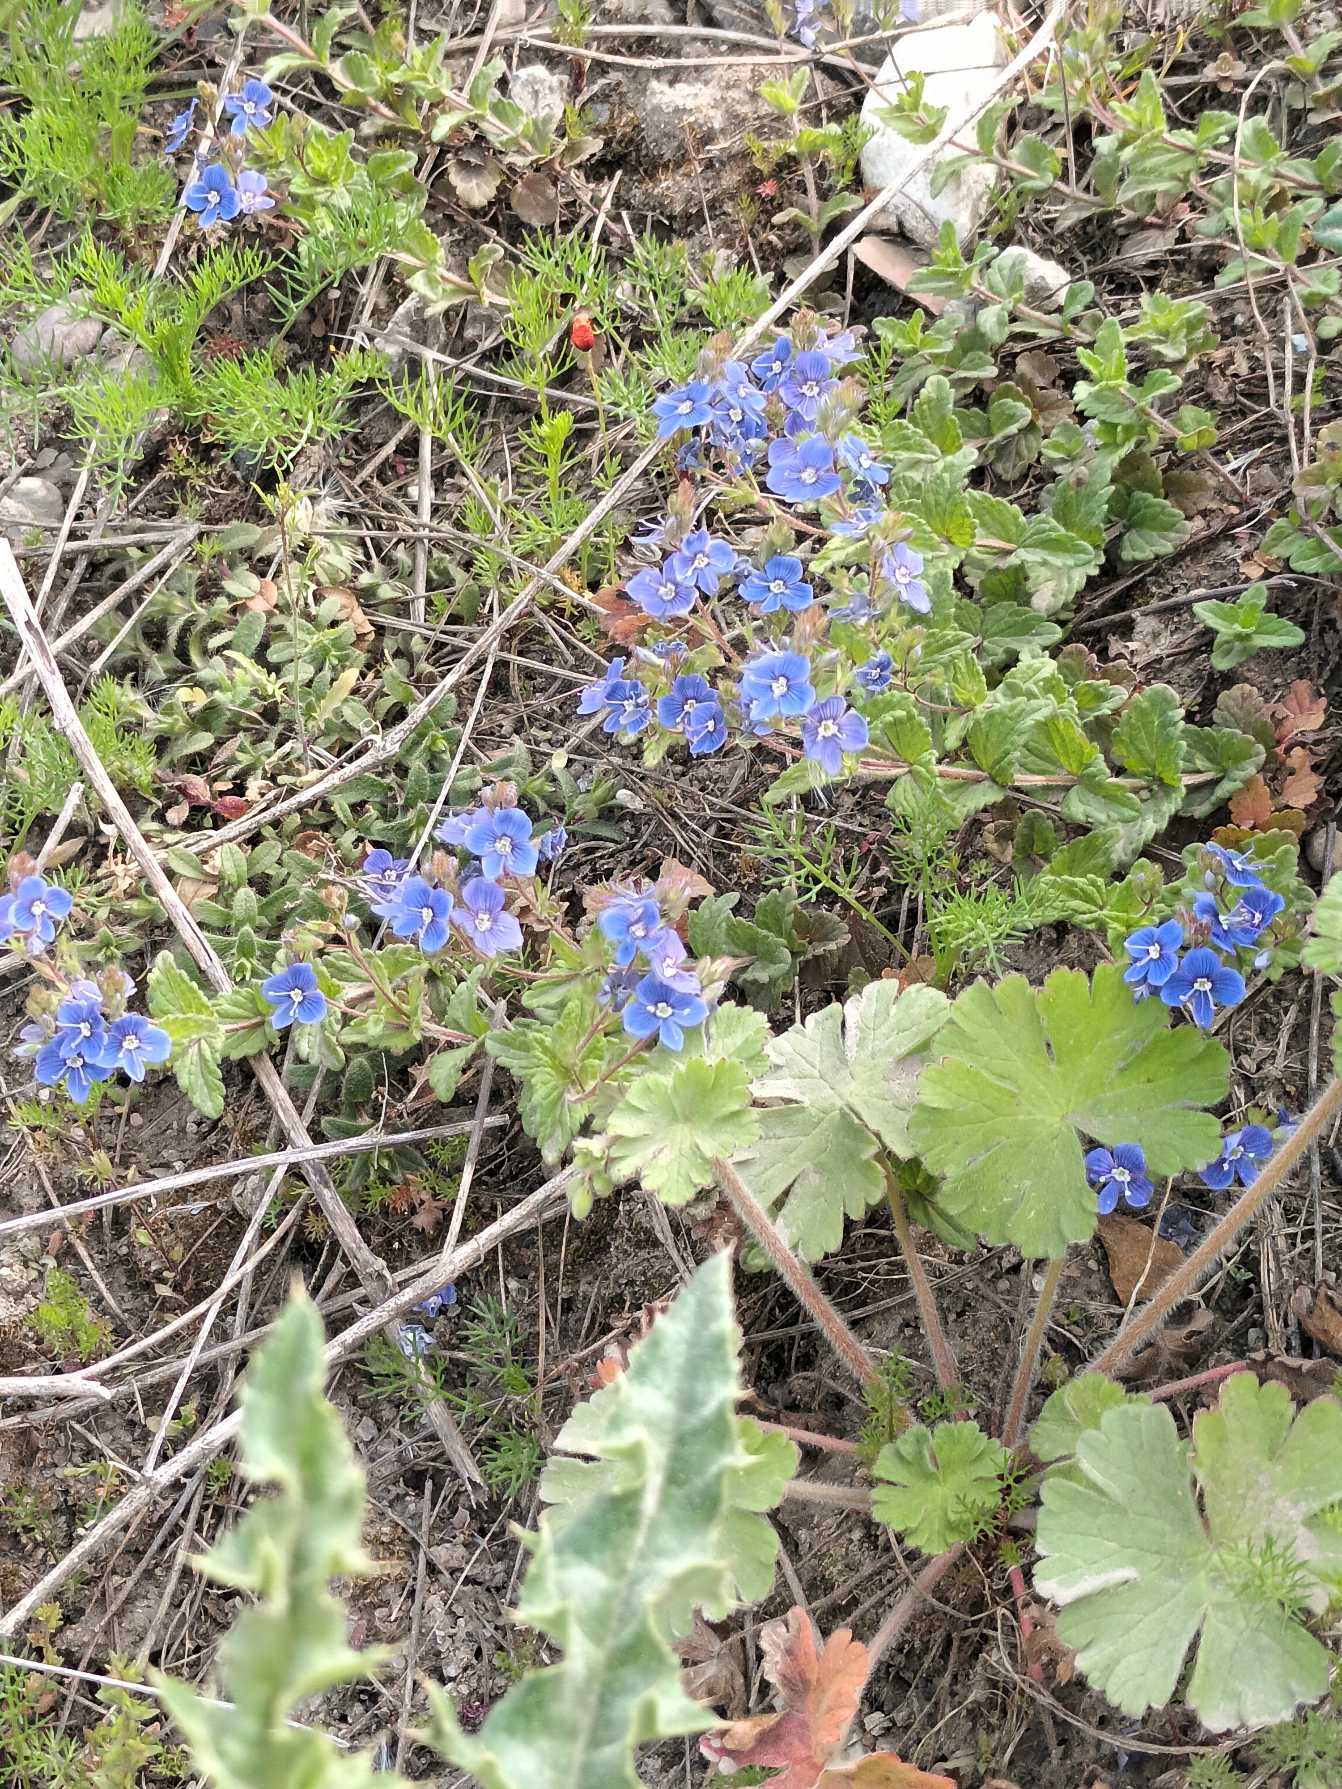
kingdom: Plantae
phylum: Tracheophyta
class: Magnoliopsida
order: Lamiales
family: Plantaginaceae
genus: Veronica
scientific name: Veronica chamaedrys
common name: Tveskægget ærenpris
